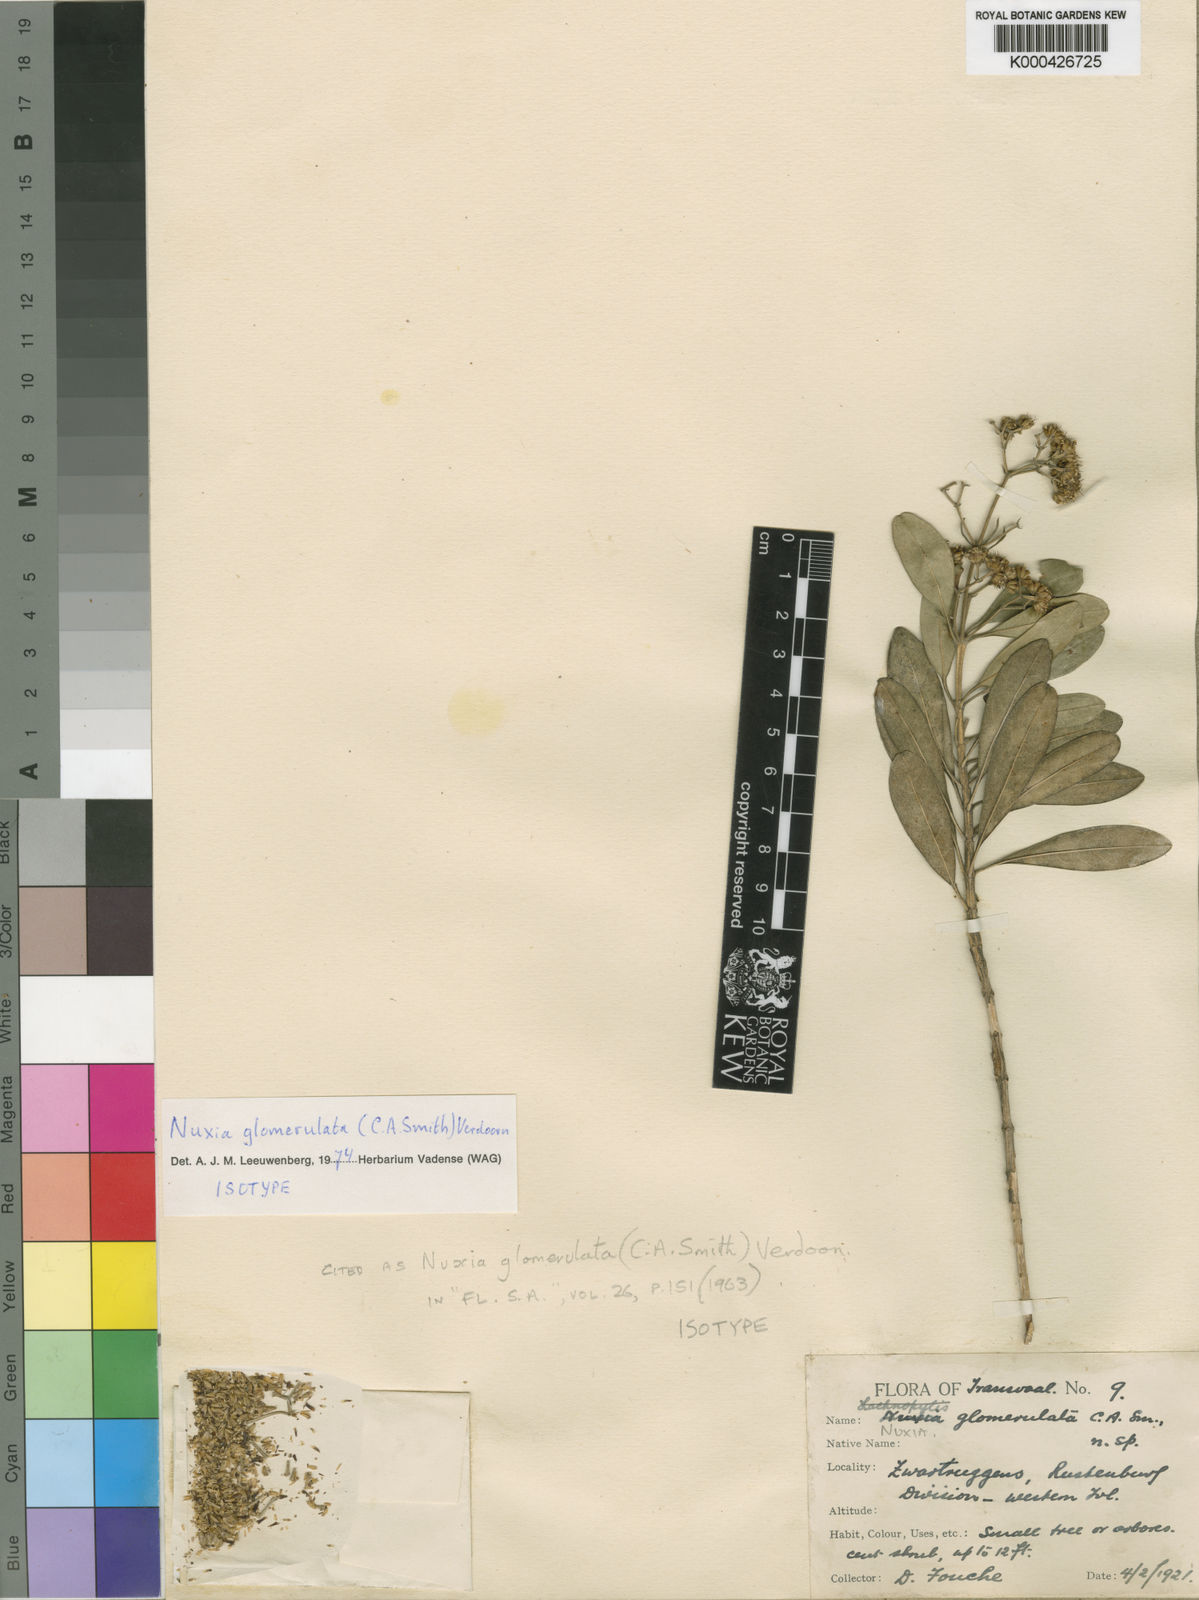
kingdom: Plantae
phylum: Tracheophyta
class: Magnoliopsida
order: Lamiales
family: Stilbaceae
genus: Nuxia
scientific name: Nuxia glomerulata
